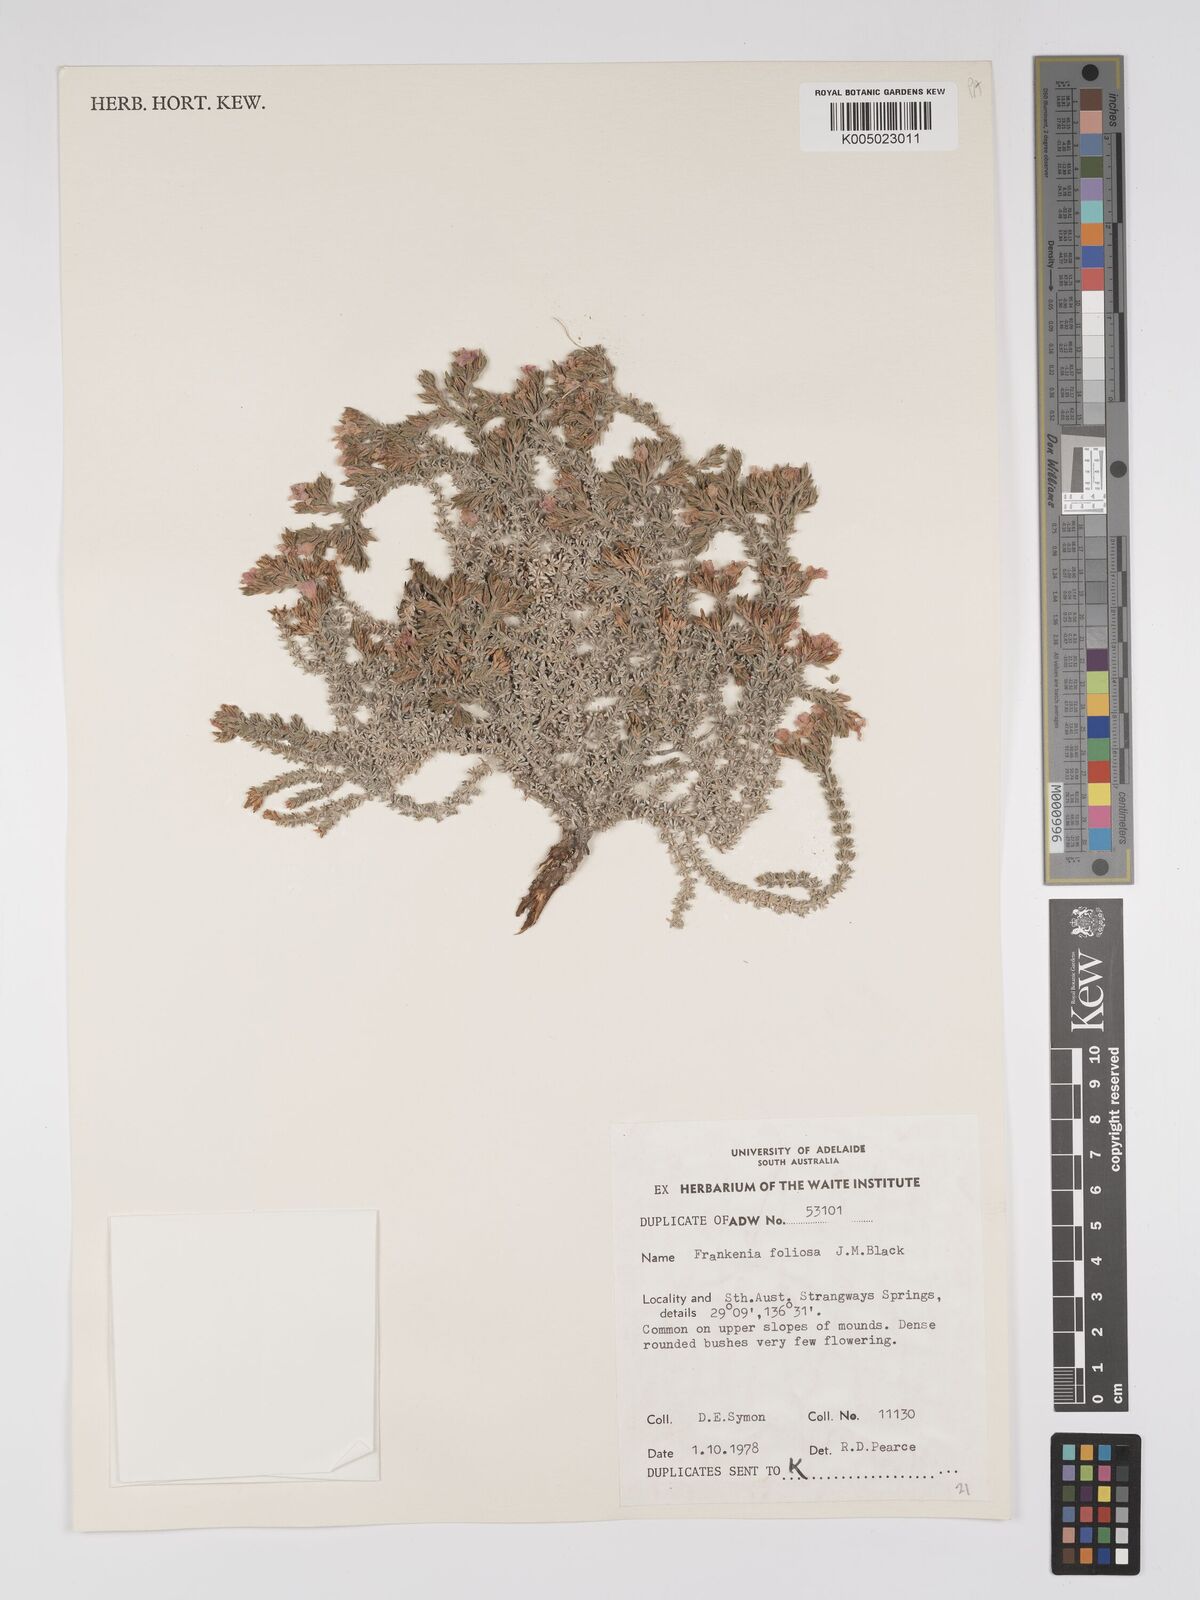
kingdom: Plantae
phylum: Tracheophyta
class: Magnoliopsida
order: Caryophyllales
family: Frankeniaceae
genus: Frankenia
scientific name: Frankenia foliosa
